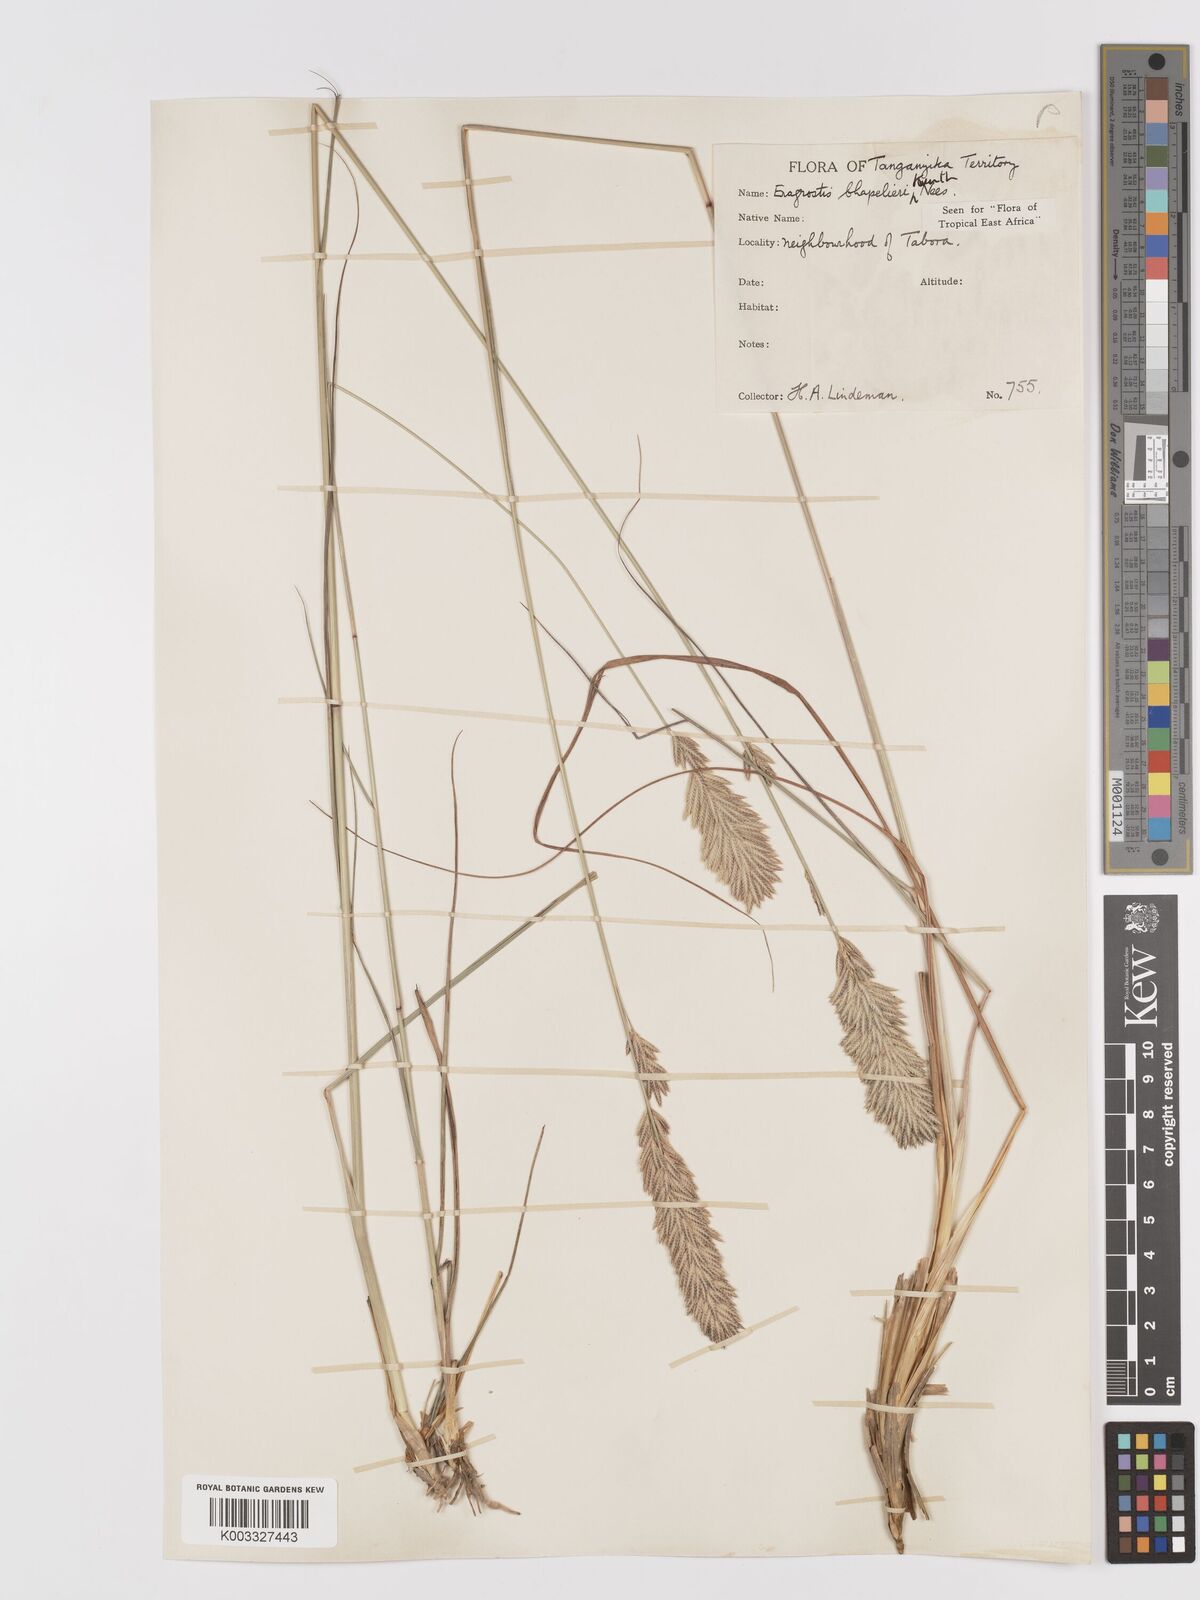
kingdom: Plantae
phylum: Tracheophyta
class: Liliopsida
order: Poales
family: Poaceae
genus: Eragrostis
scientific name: Eragrostis chapelieri
